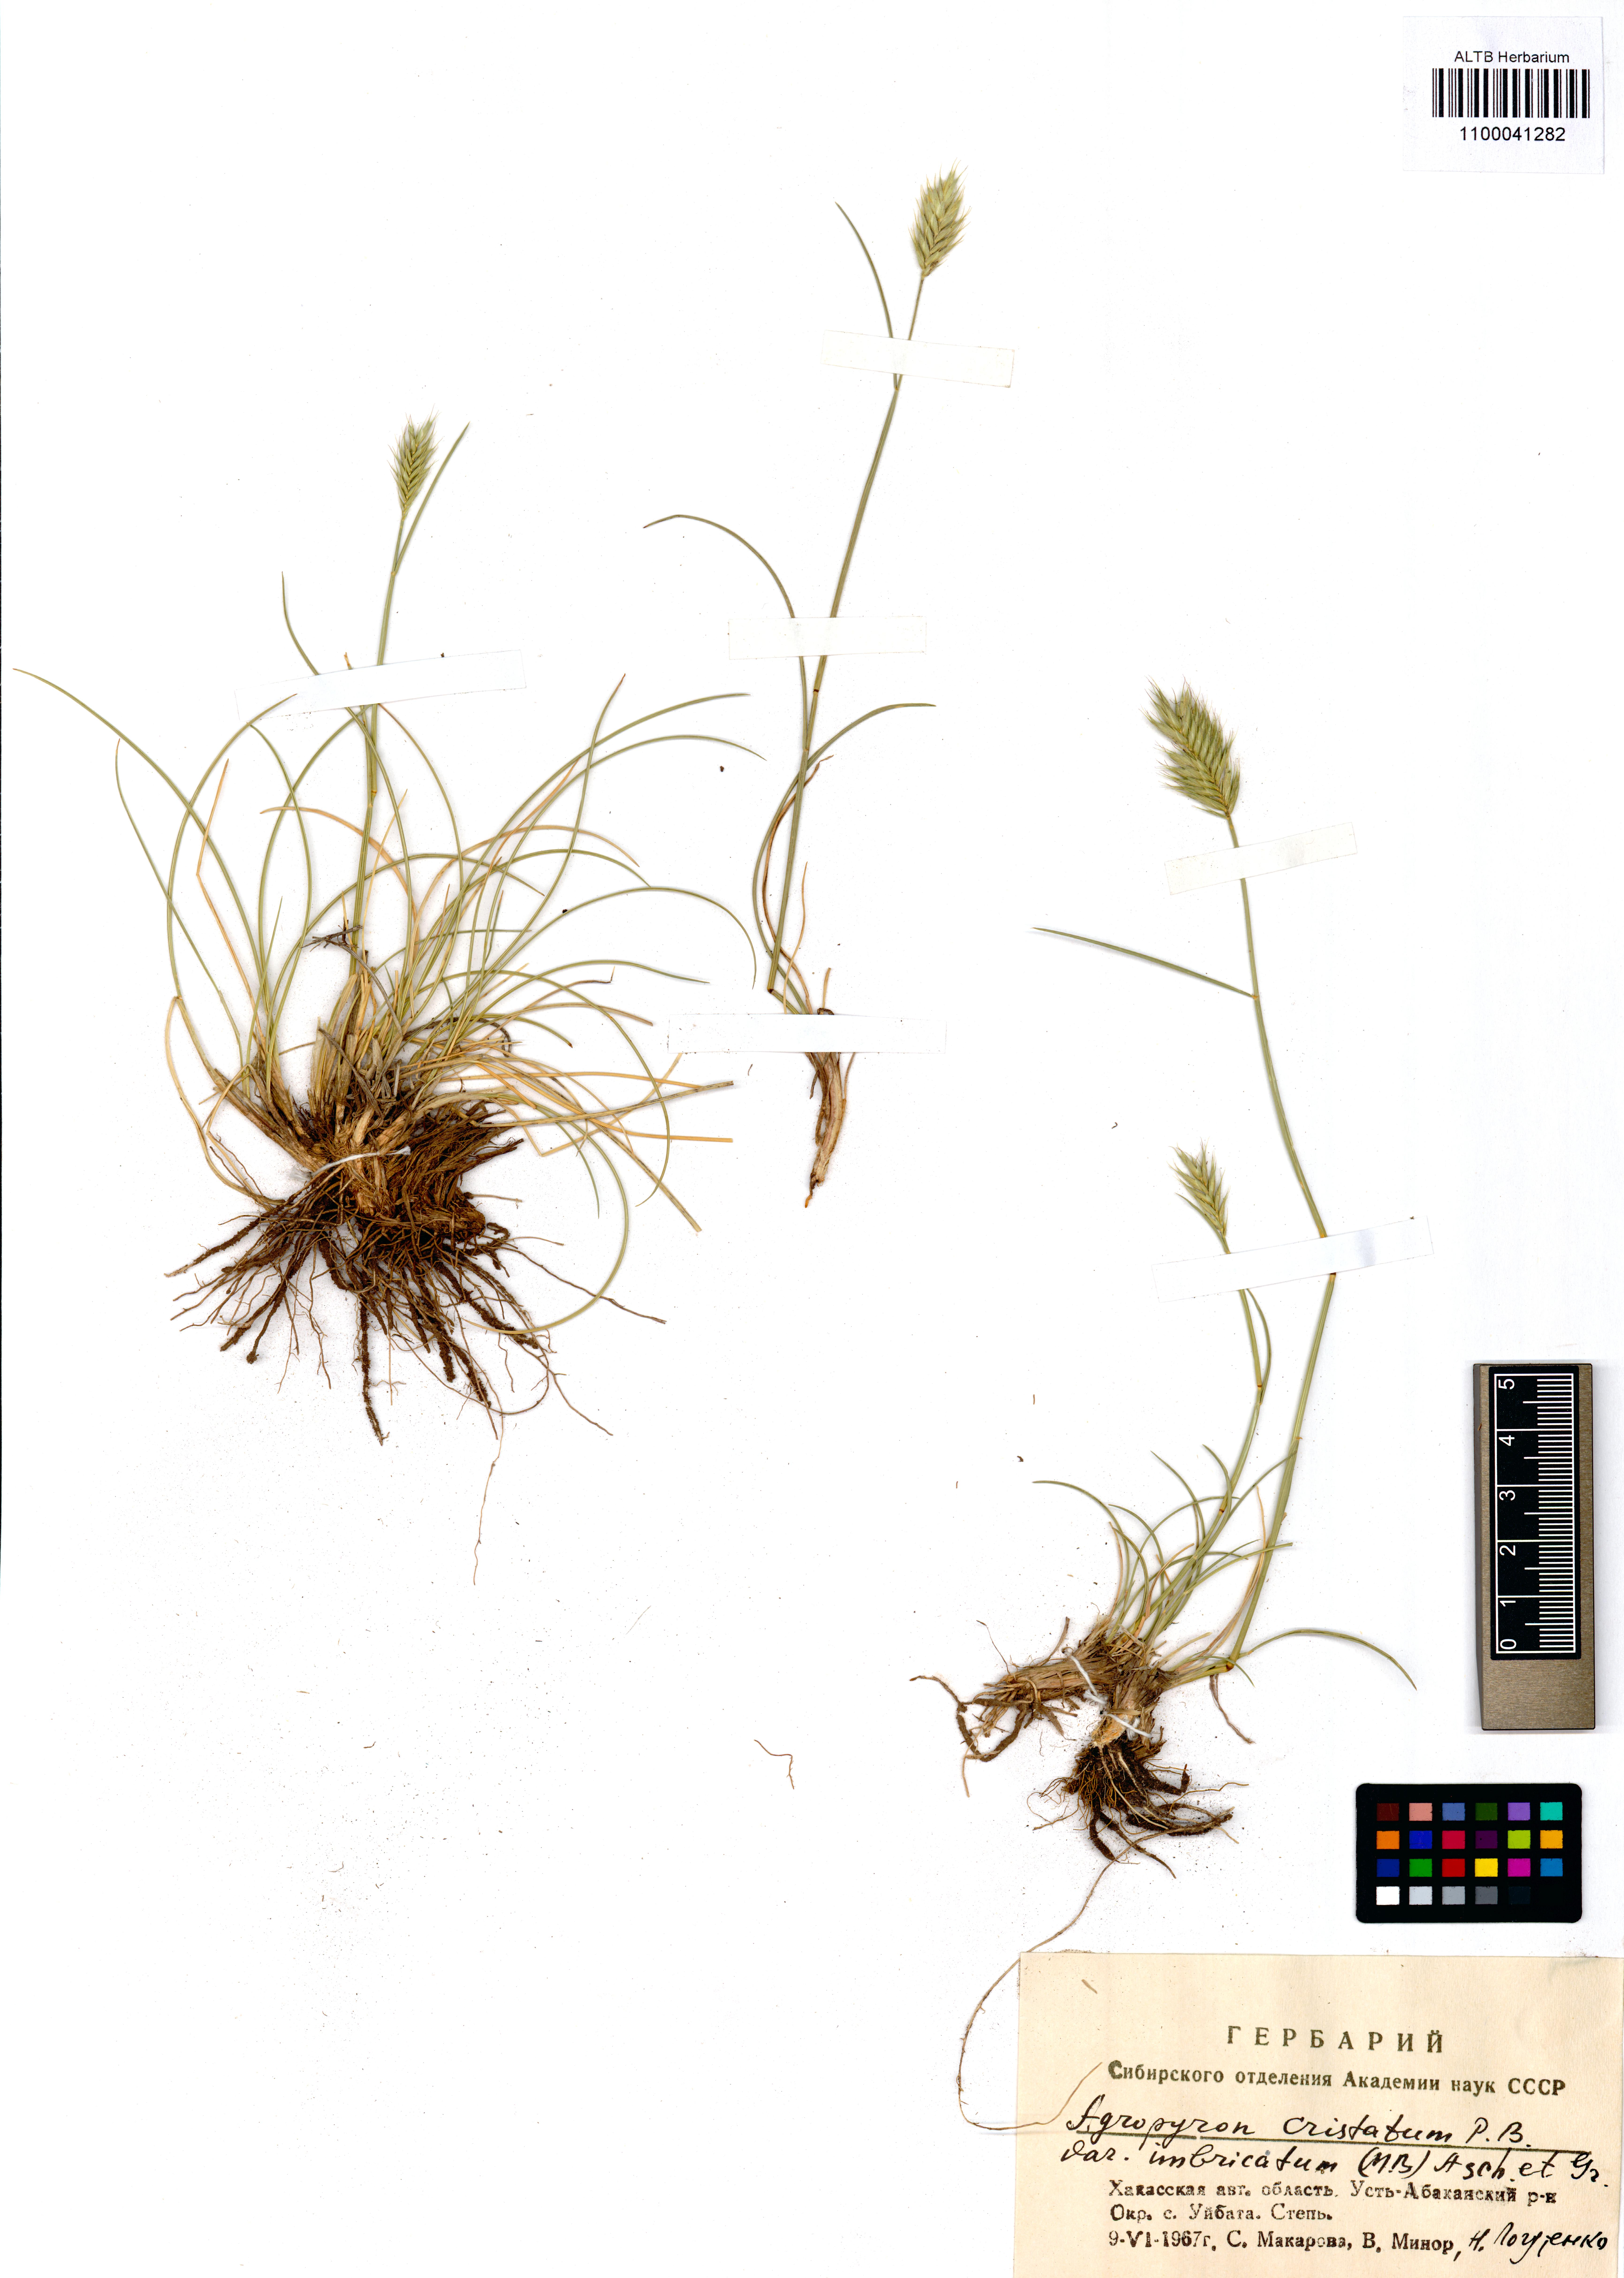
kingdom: Plantae
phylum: Tracheophyta
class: Liliopsida
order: Poales
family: Poaceae
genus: Agropyron
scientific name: Agropyron cristatum
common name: Crested wheatgrass
